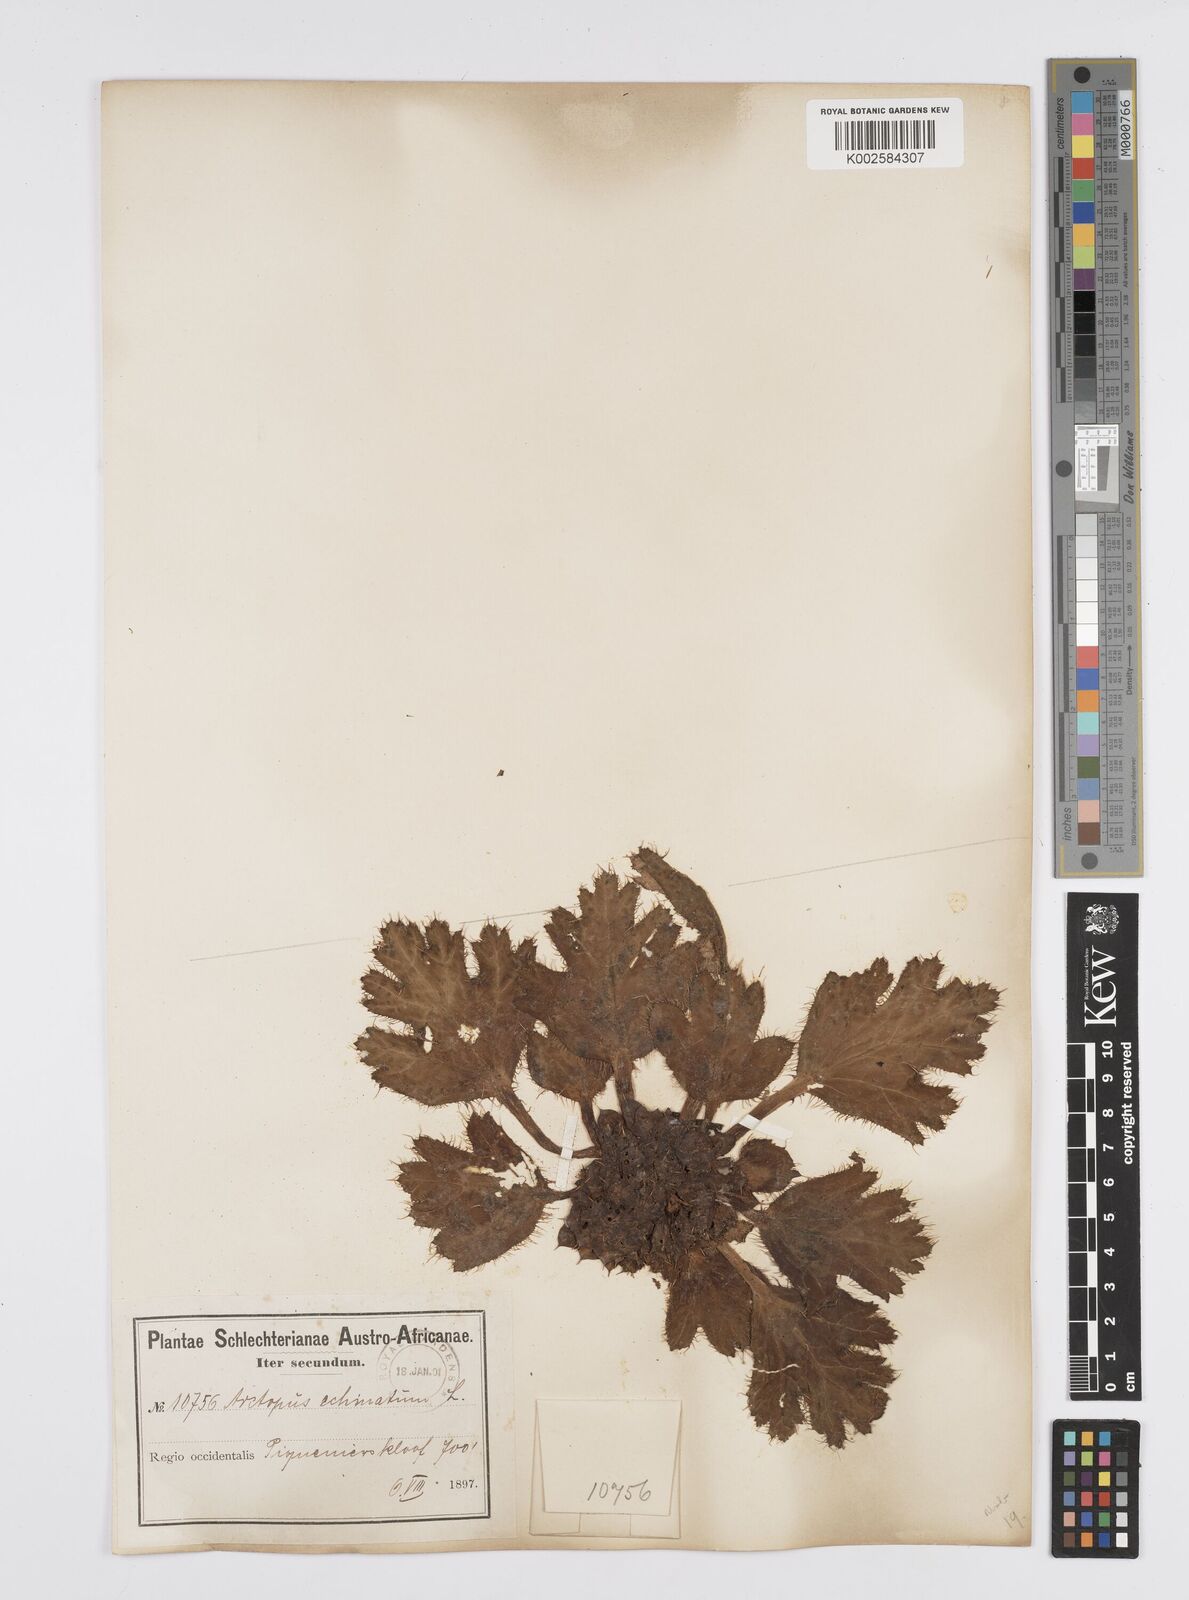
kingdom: Plantae
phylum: Tracheophyta
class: Magnoliopsida
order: Apiales
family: Apiaceae
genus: Arctopus
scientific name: Arctopus echinatus
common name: Platdoring
